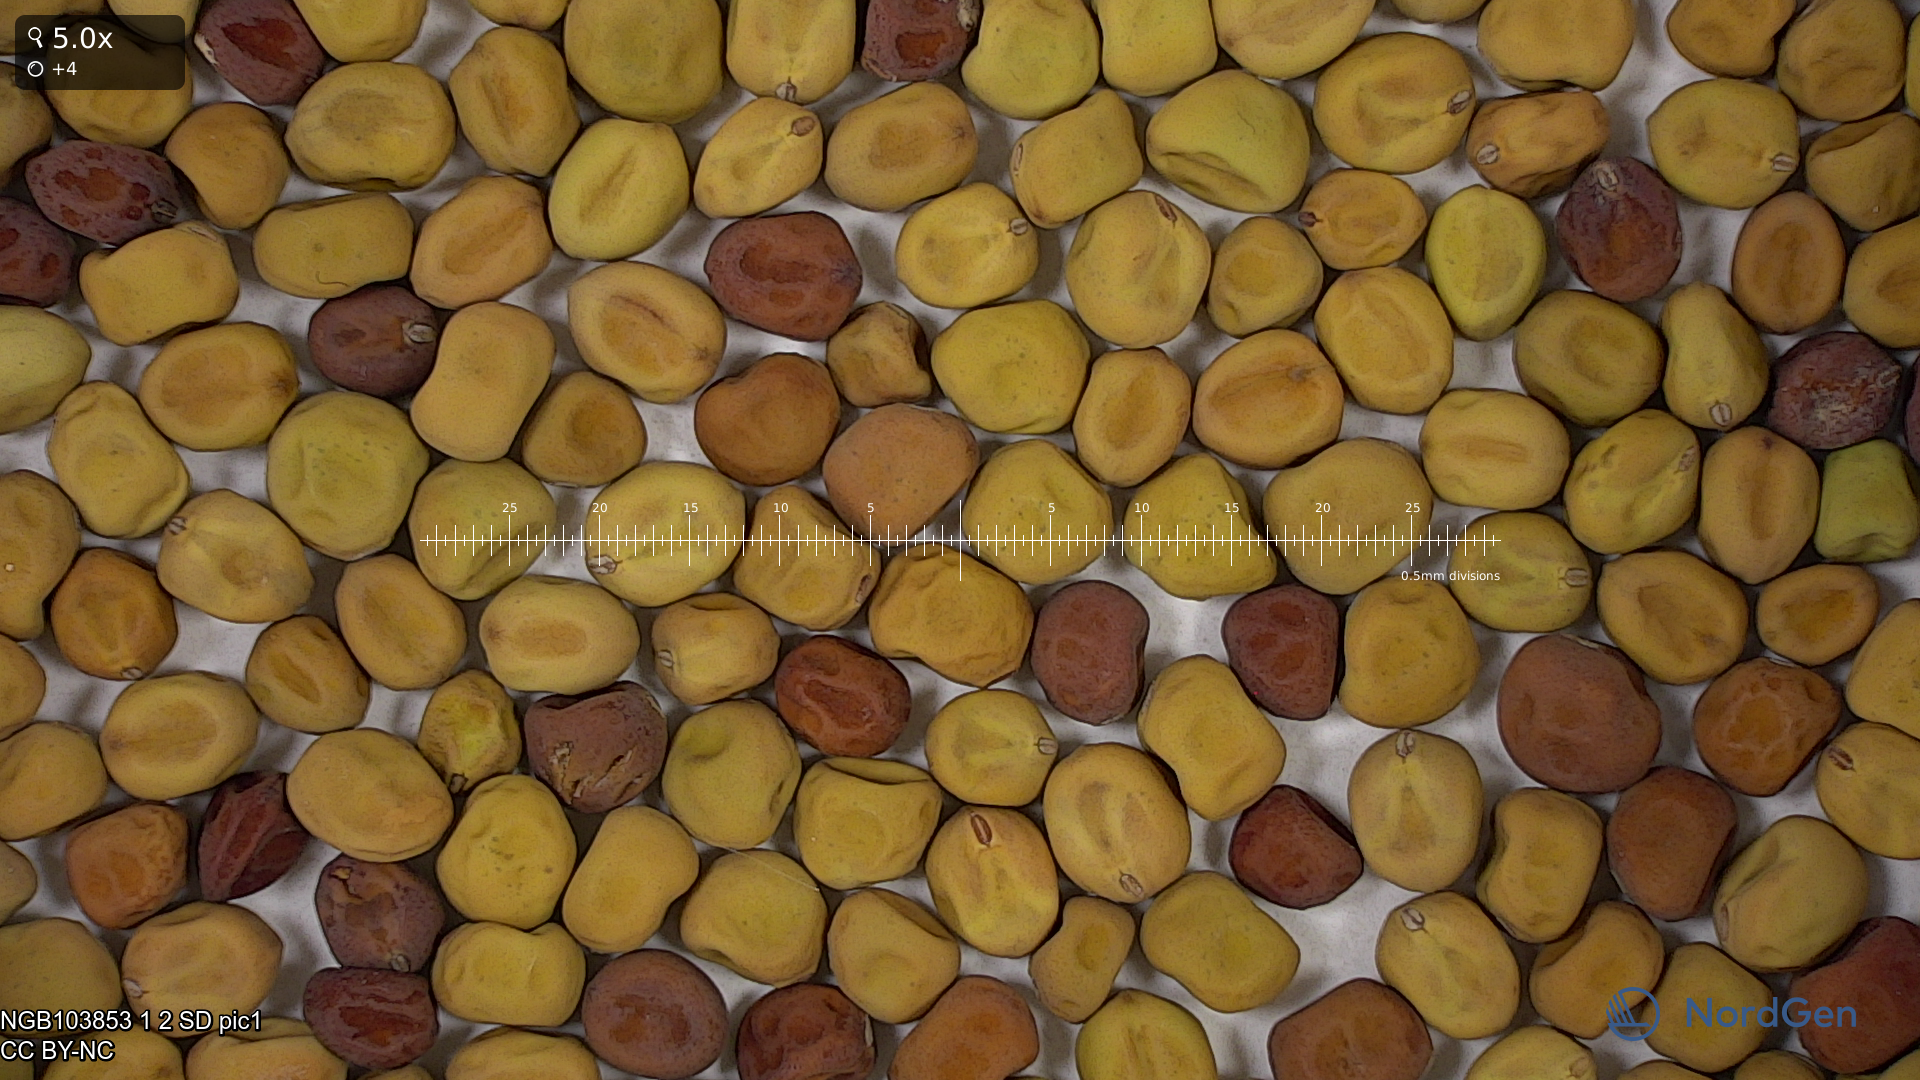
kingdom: Plantae
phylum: Tracheophyta
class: Magnoliopsida
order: Fabales
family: Fabaceae
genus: Lathyrus
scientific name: Lathyrus oleraceus
